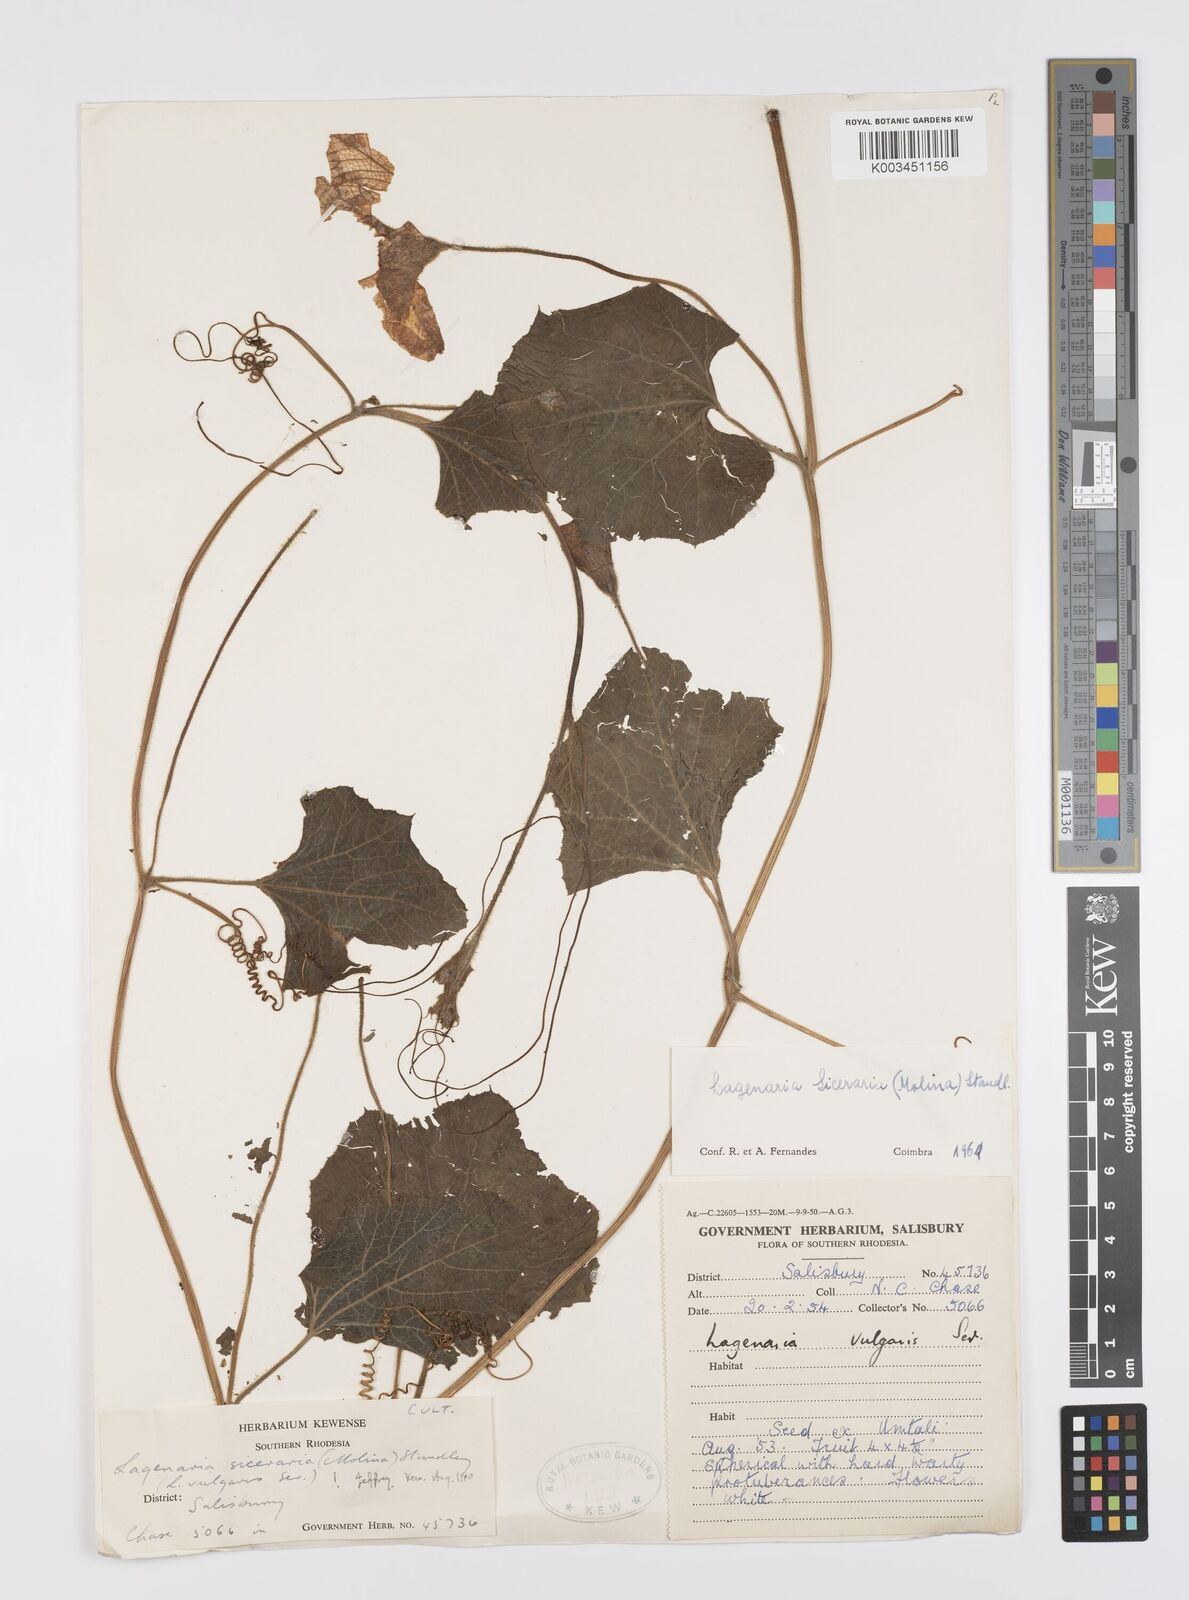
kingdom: Plantae
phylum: Tracheophyta
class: Magnoliopsida
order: Cucurbitales
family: Cucurbitaceae
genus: Lagenaria
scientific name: Lagenaria siceraria
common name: Bottle gourd
